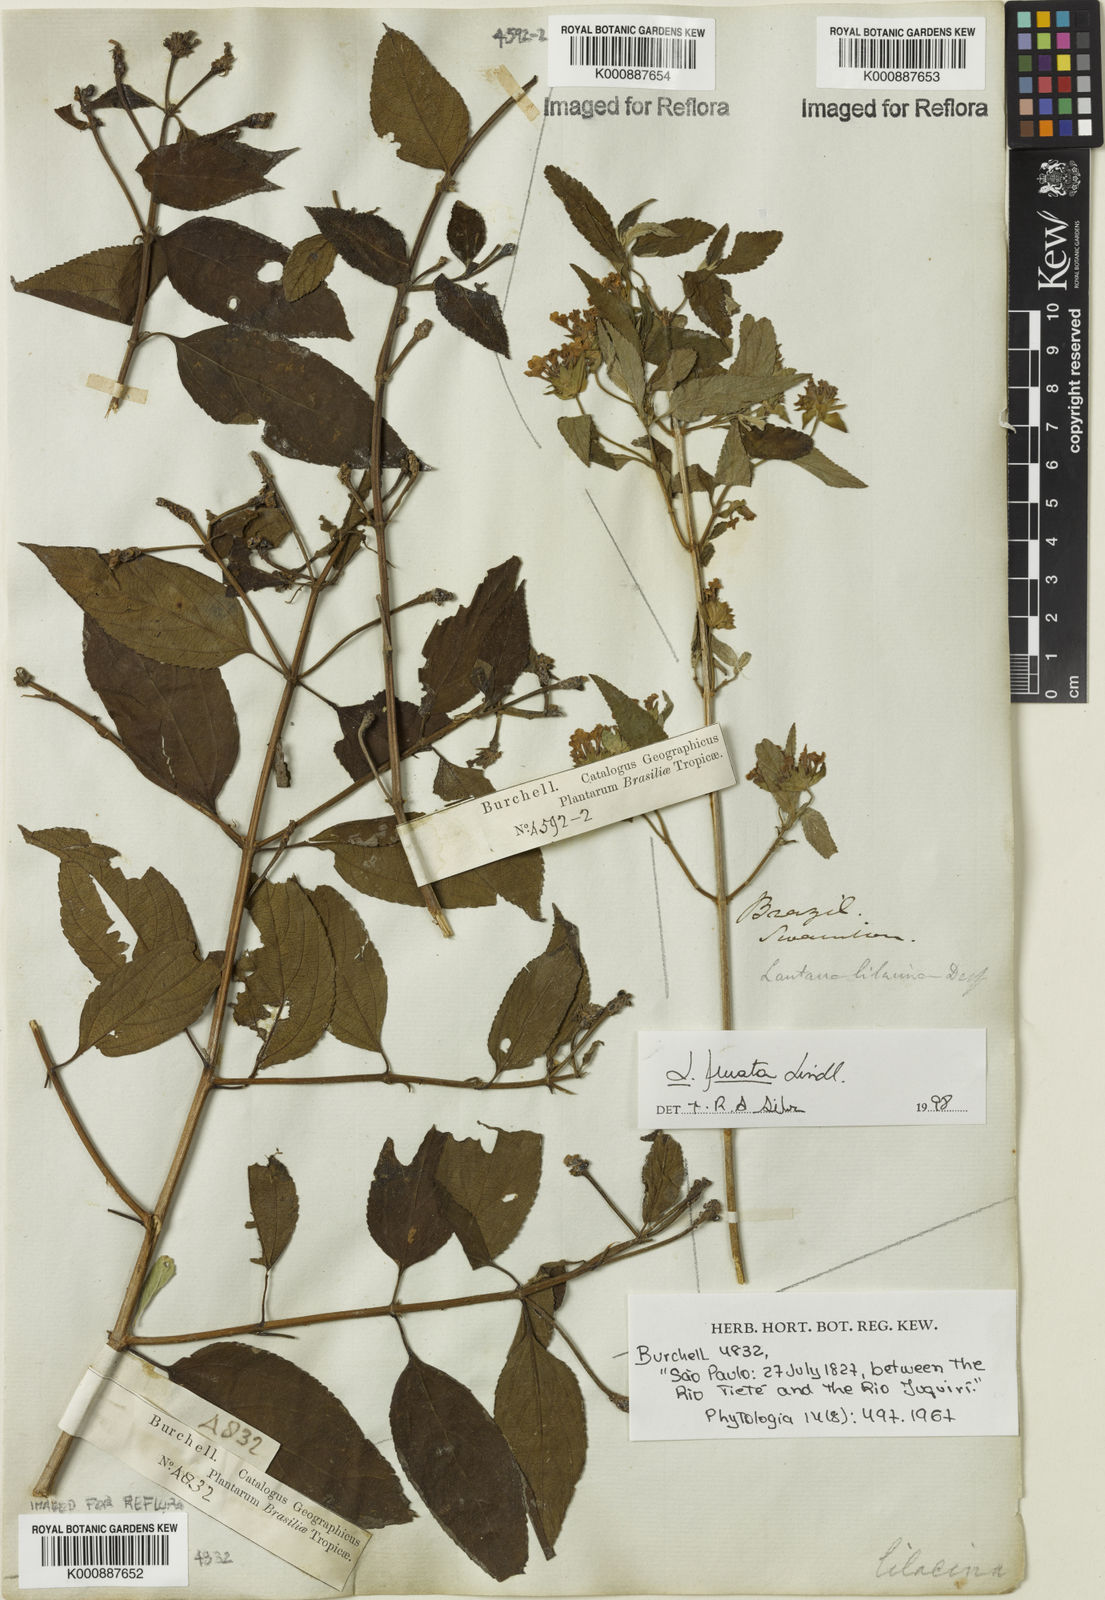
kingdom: Plantae
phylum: Tracheophyta
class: Magnoliopsida
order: Lamiales
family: Verbenaceae
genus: Lantana
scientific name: Lantana fucata
